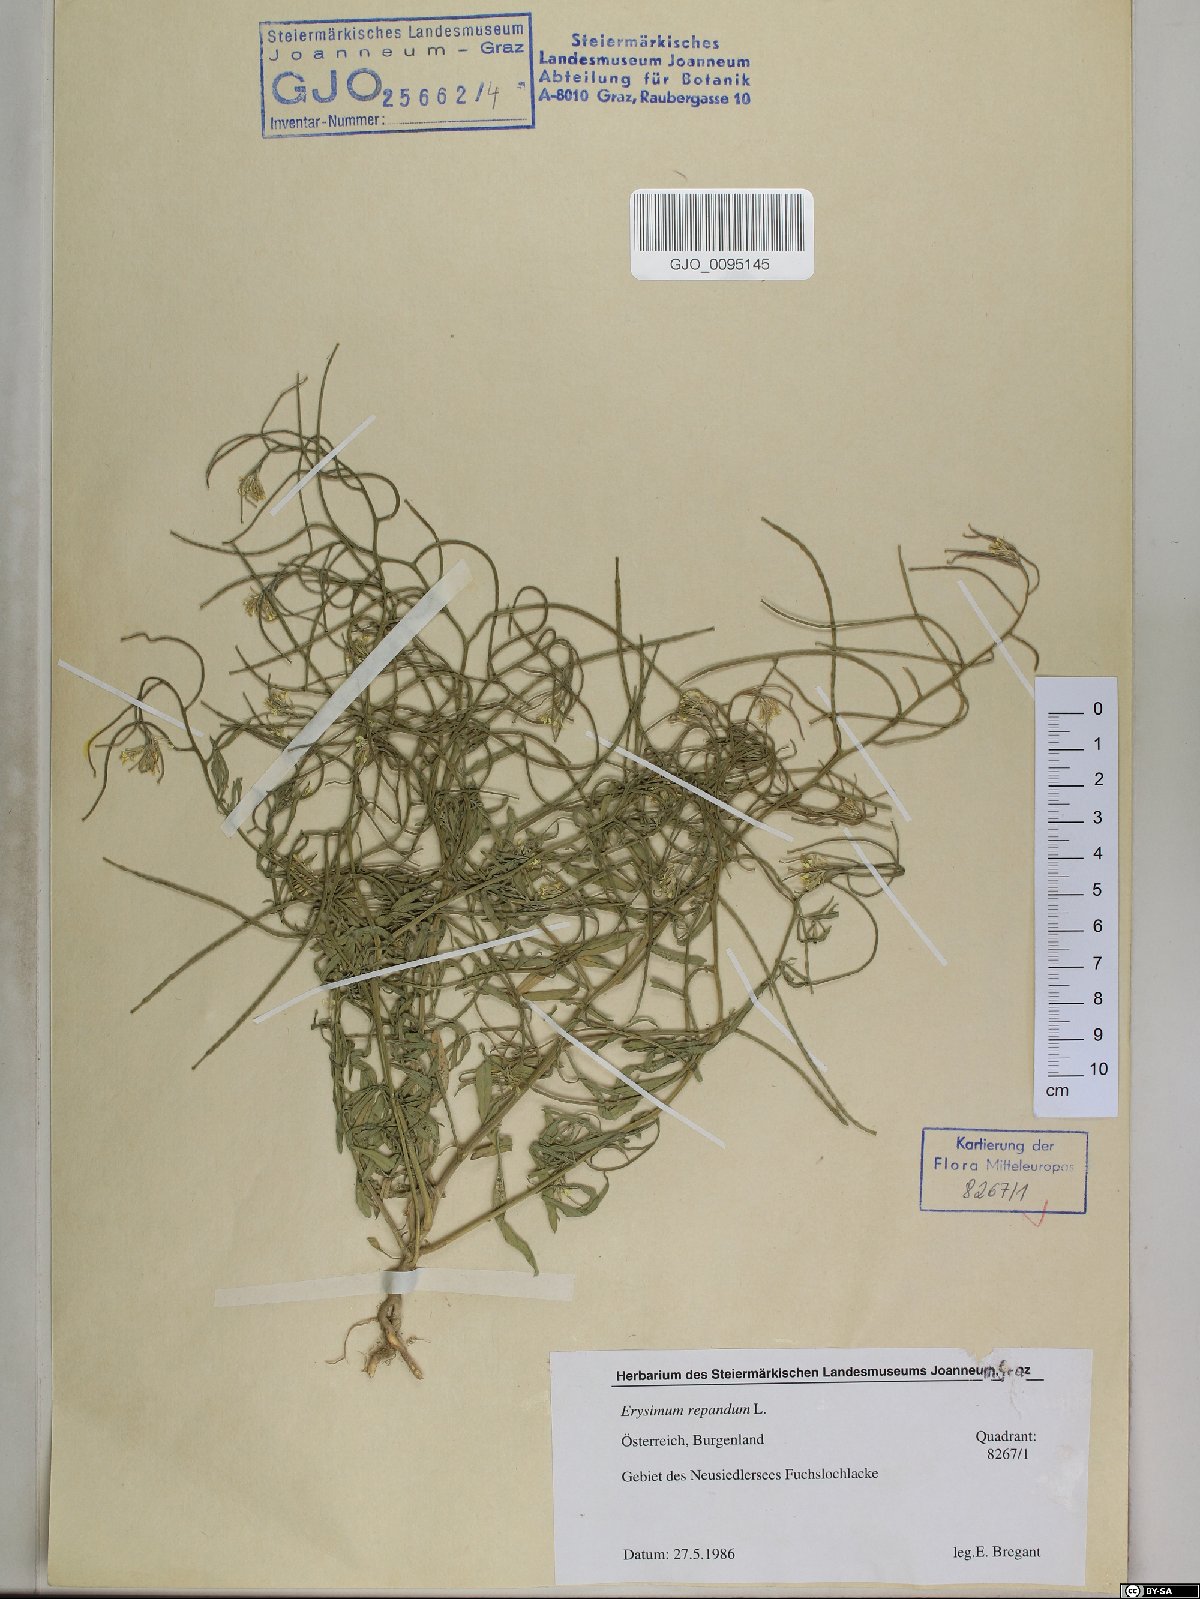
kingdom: Plantae
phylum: Tracheophyta
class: Magnoliopsida
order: Brassicales
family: Brassicaceae
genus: Erysimum
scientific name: Erysimum repandum
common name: Spreading wallflower
